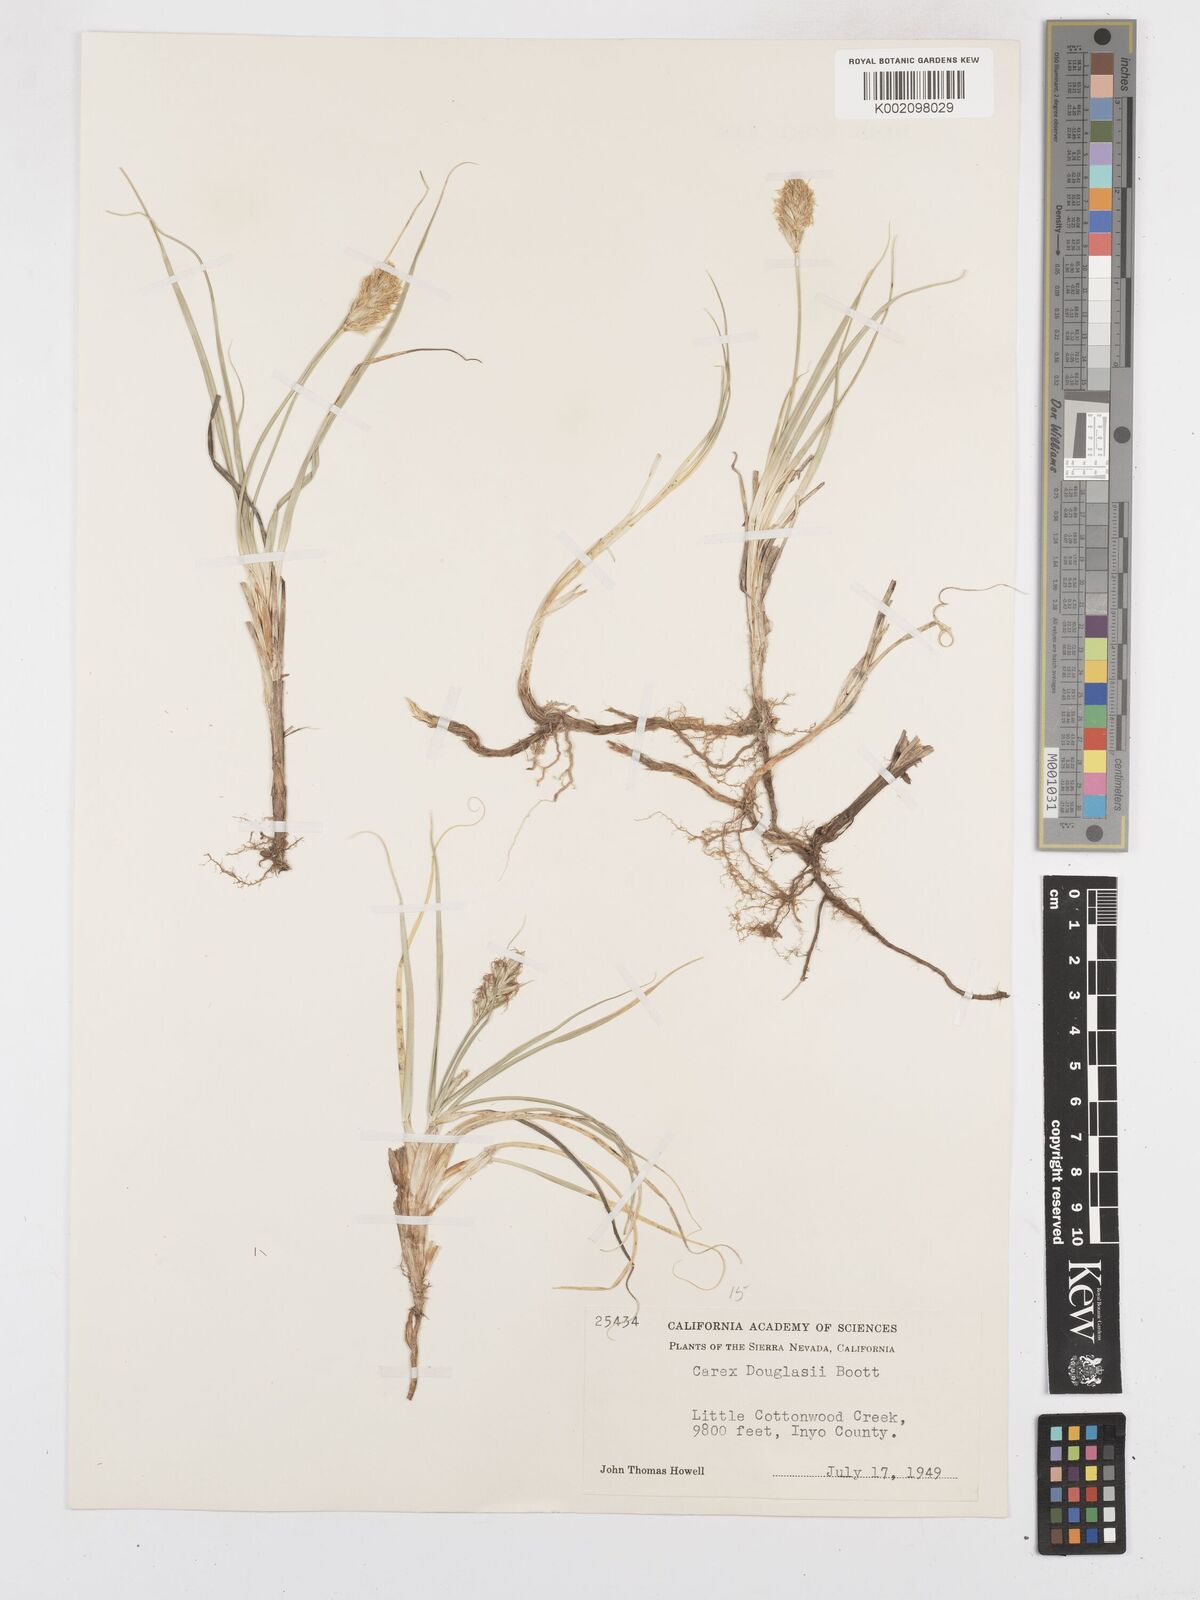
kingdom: Plantae
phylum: Tracheophyta
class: Liliopsida
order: Poales
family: Cyperaceae
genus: Carex
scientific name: Carex douglasii
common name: Douglas' sedge
